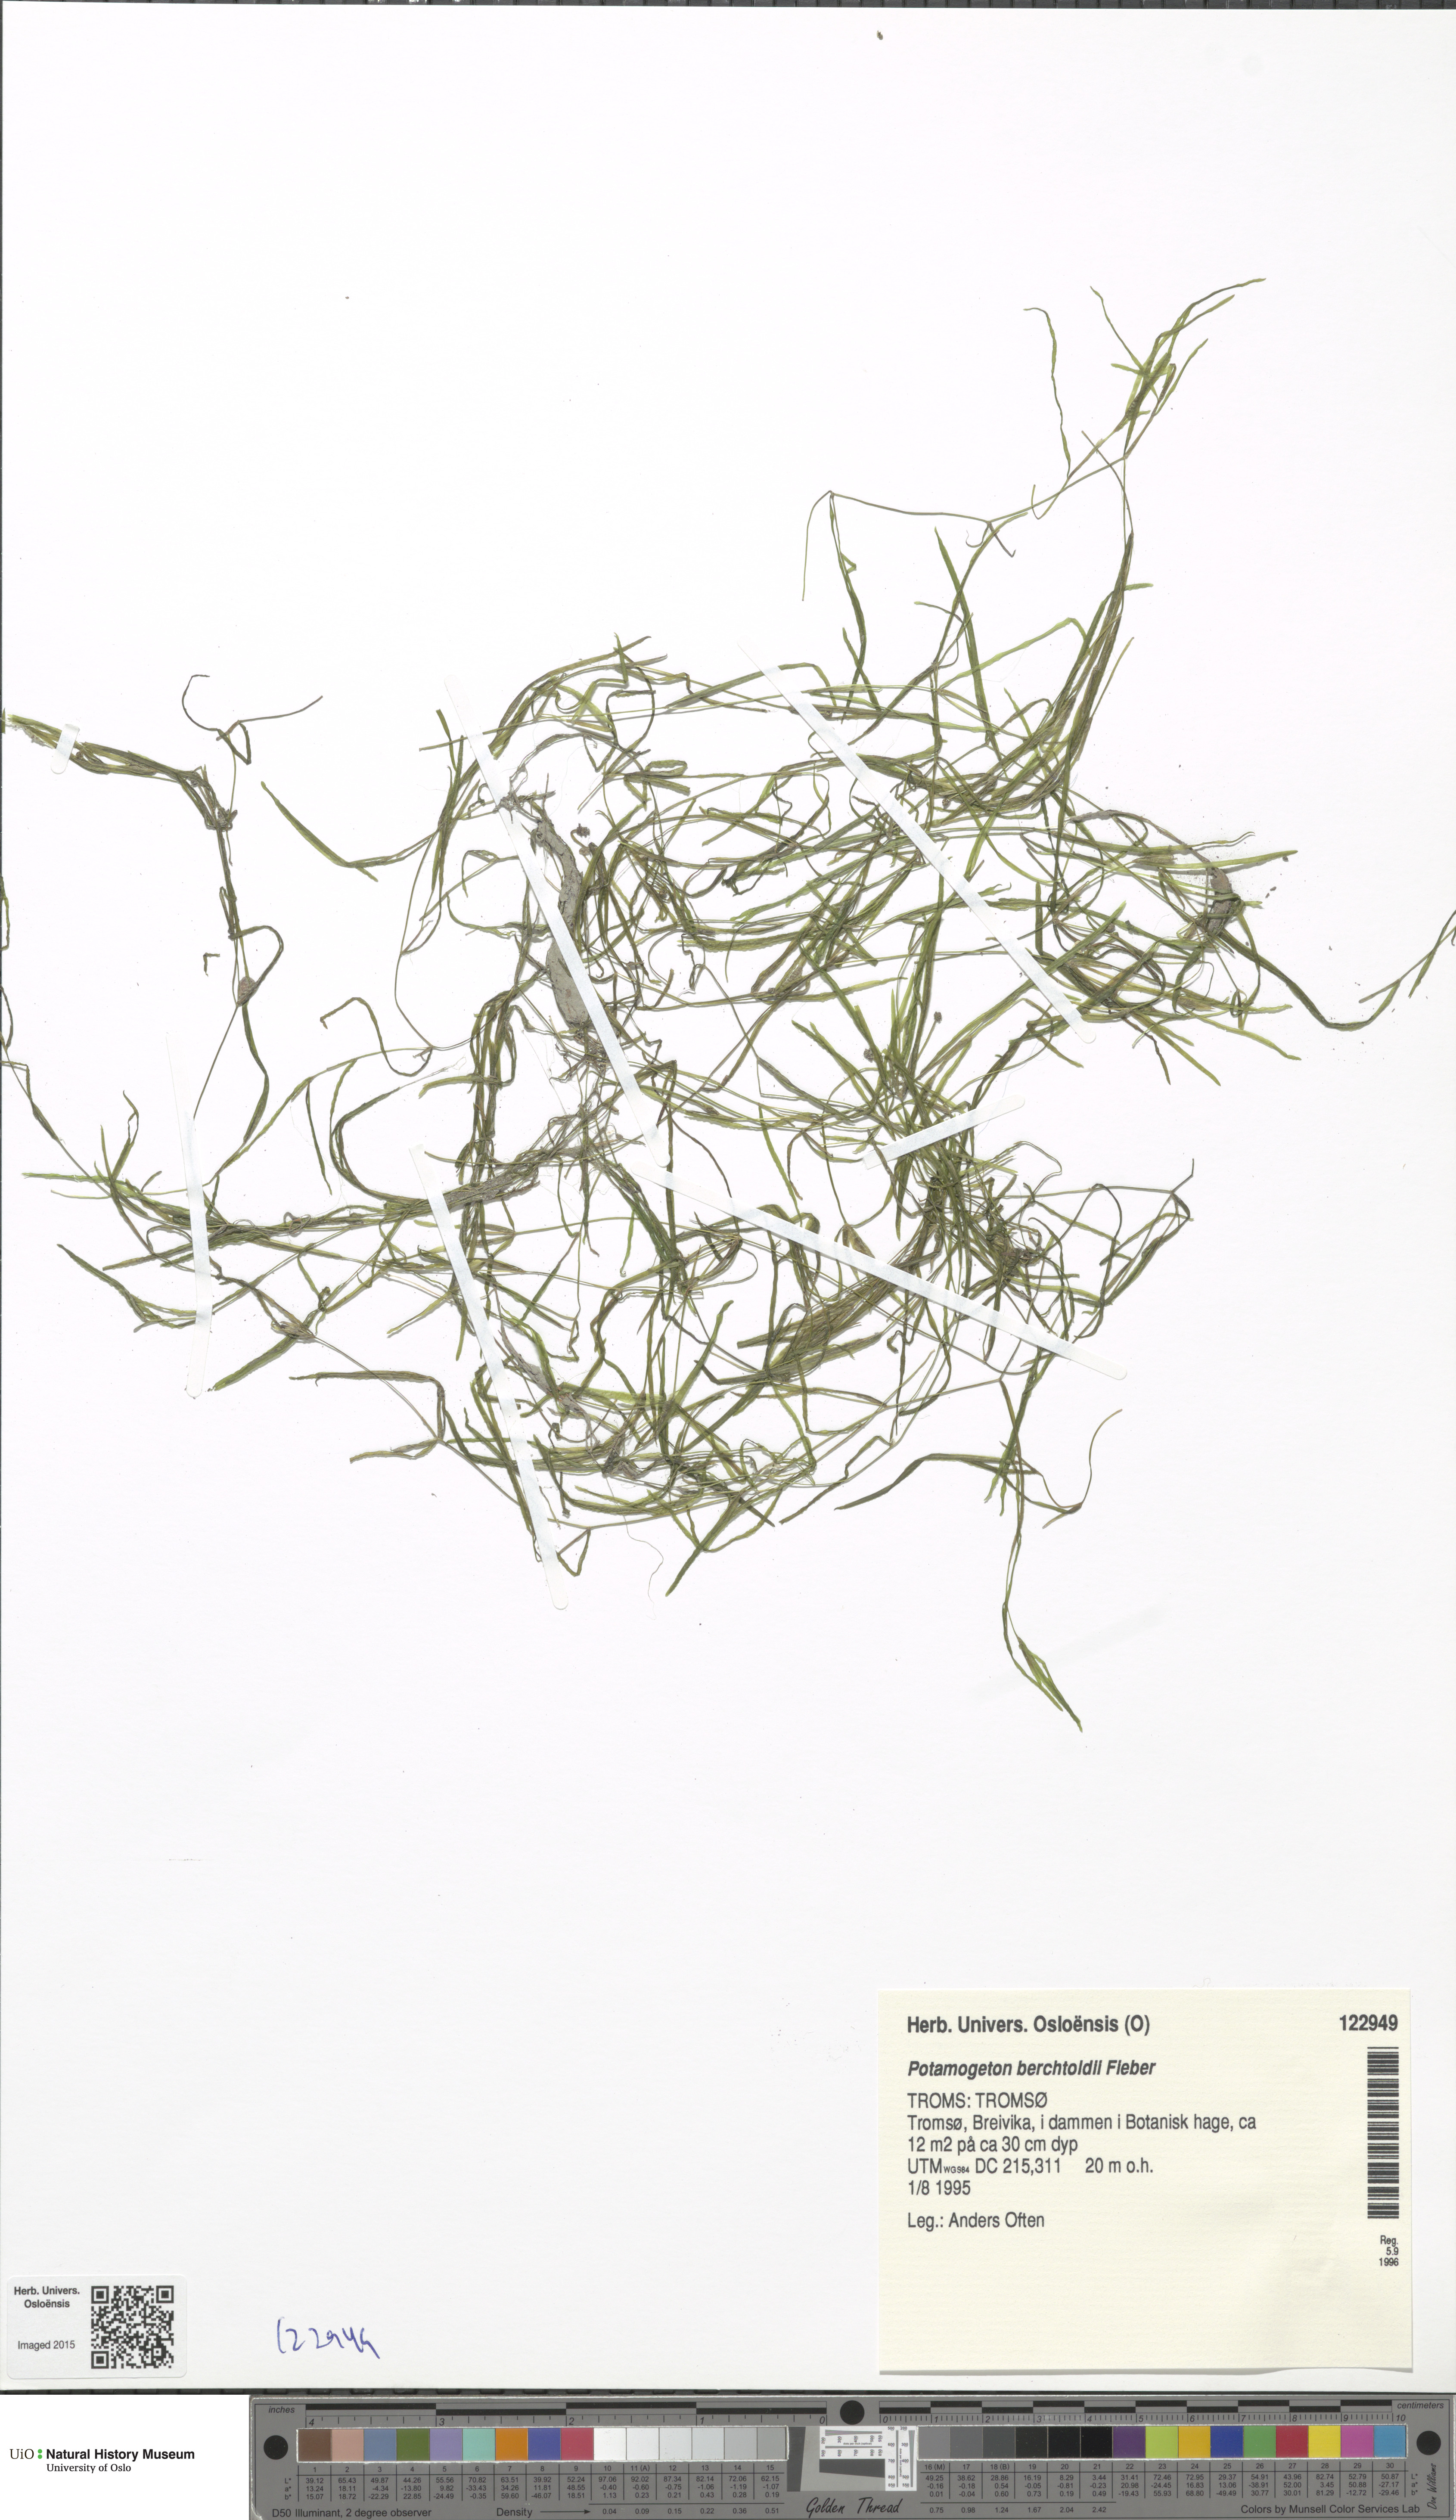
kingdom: Plantae
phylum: Tracheophyta
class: Liliopsida
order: Alismatales
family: Potamogetonaceae
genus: Potamogeton
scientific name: Potamogeton berchtoldii
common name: Small pondweed
